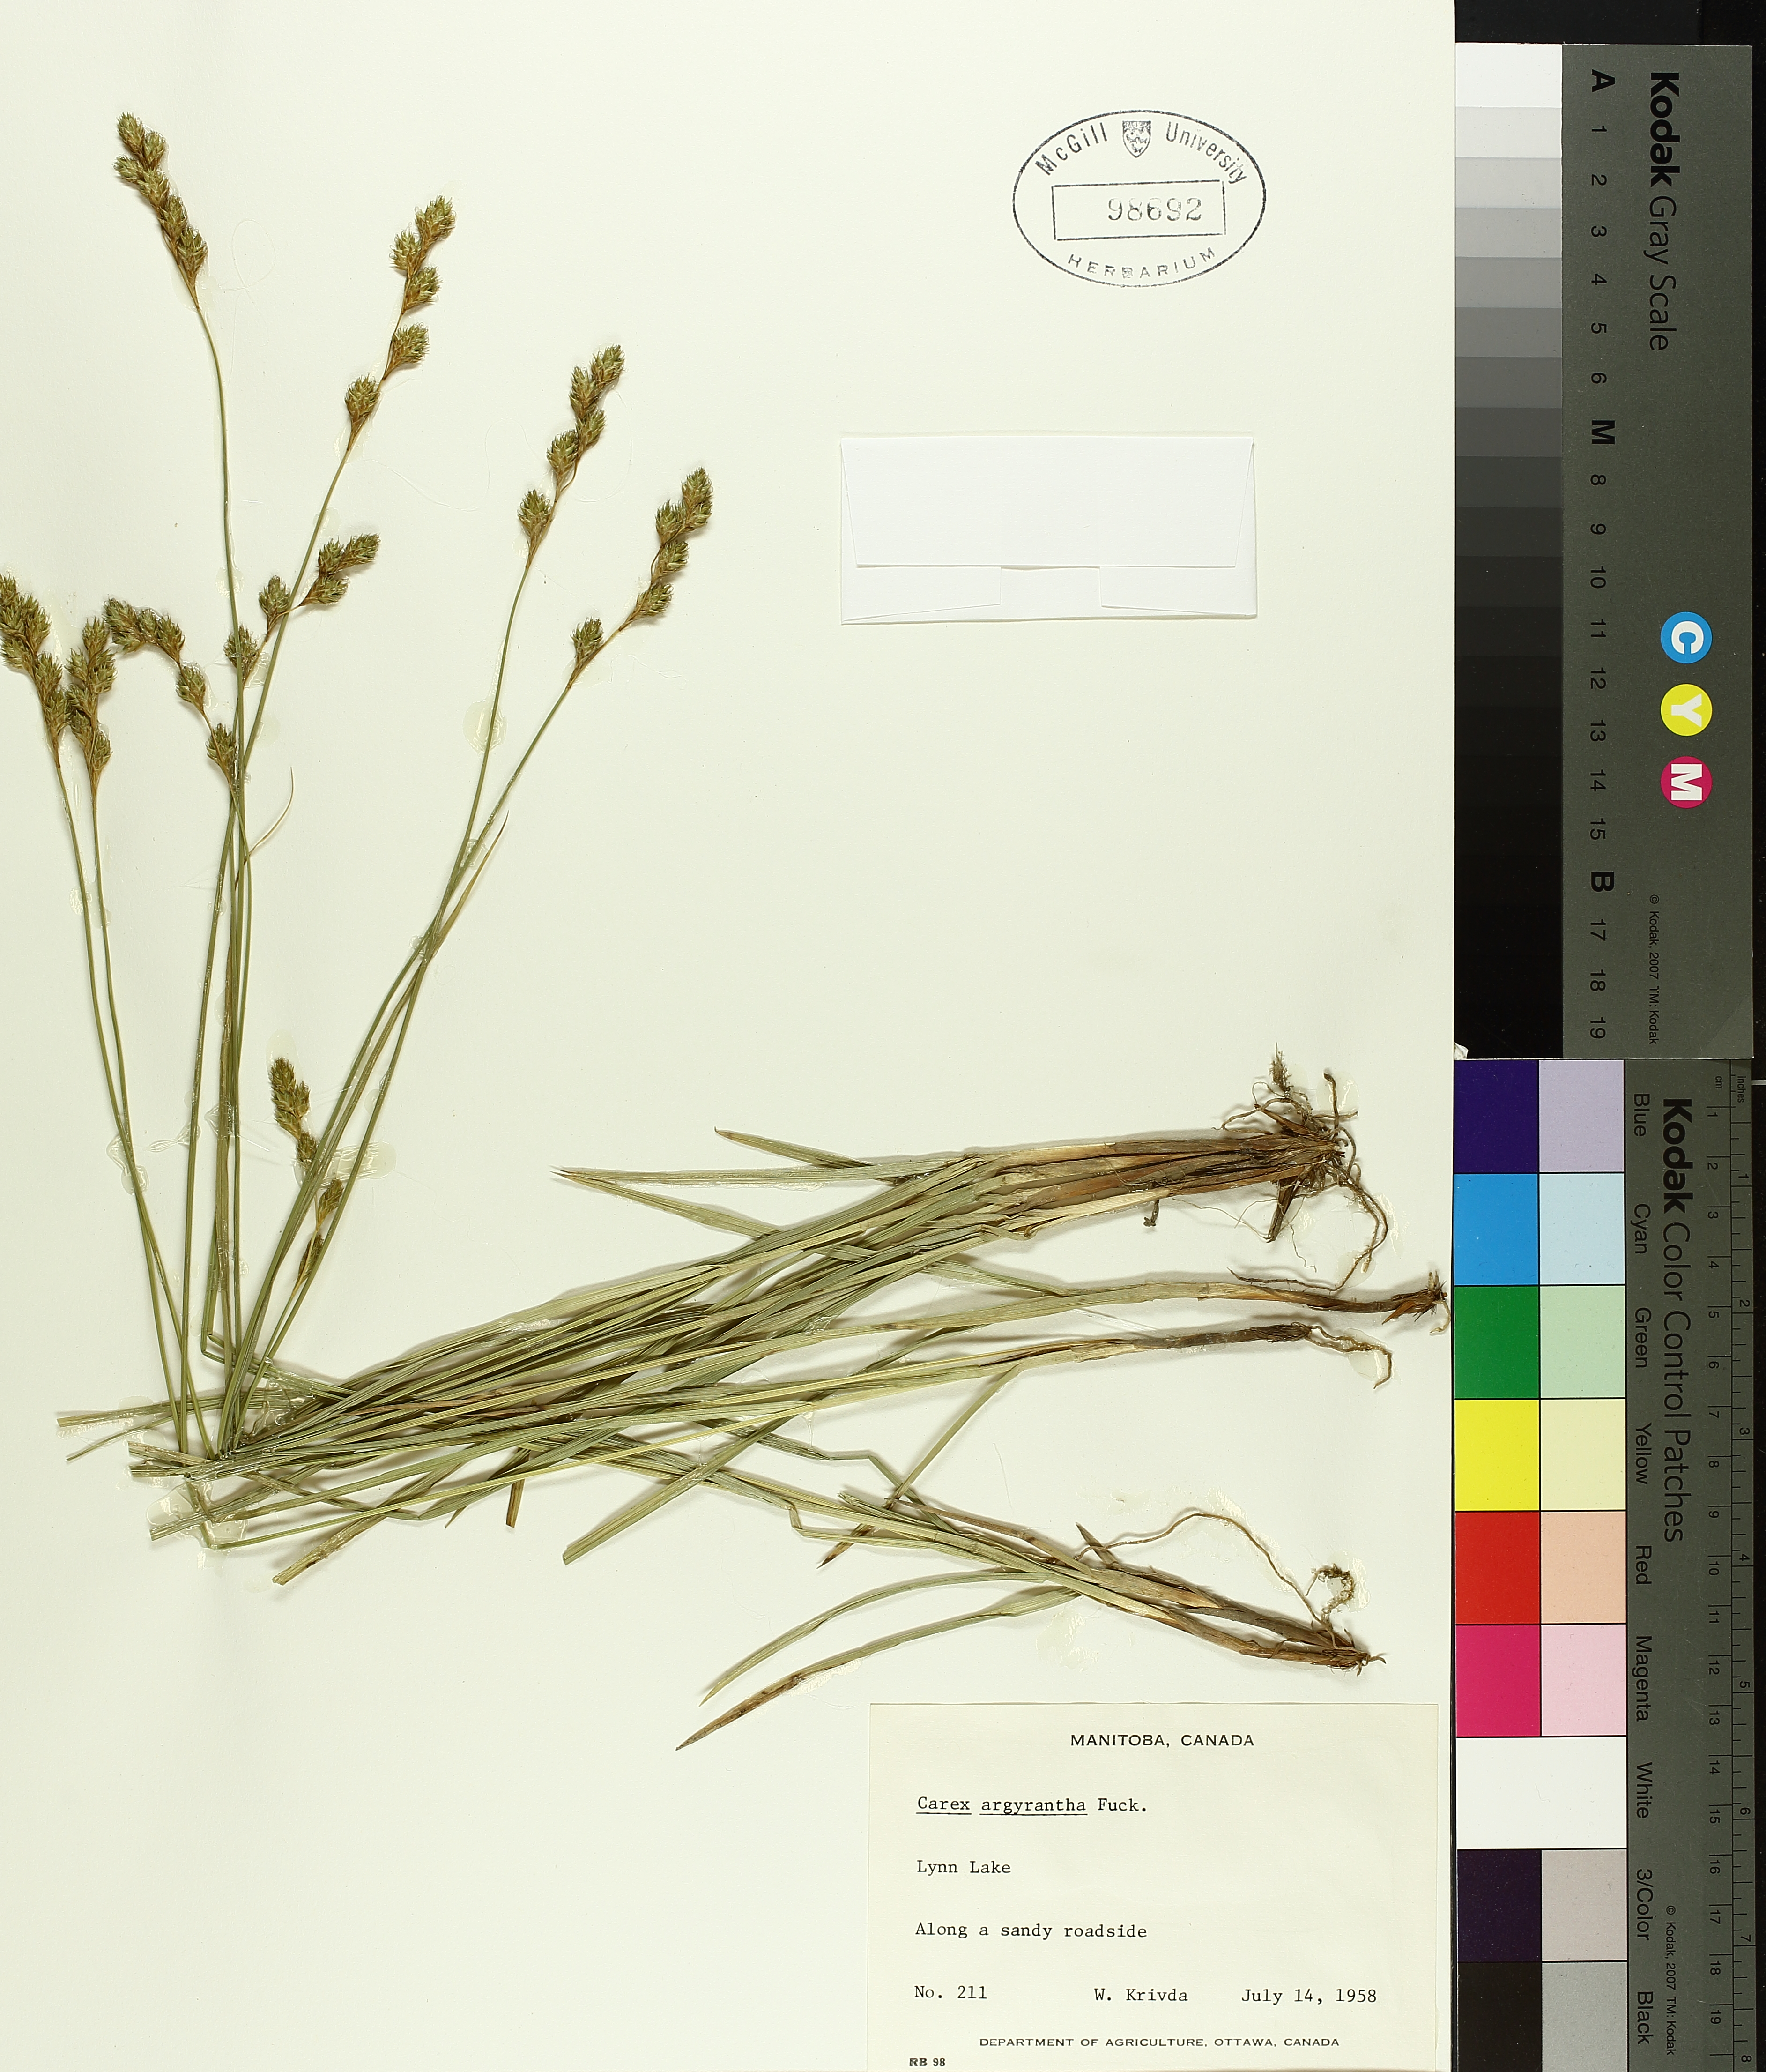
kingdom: Plantae
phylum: Tracheophyta
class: Liliopsida
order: Poales
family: Cyperaceae
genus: Carex
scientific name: Carex argyrantha
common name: Silvery-flowered sedge
